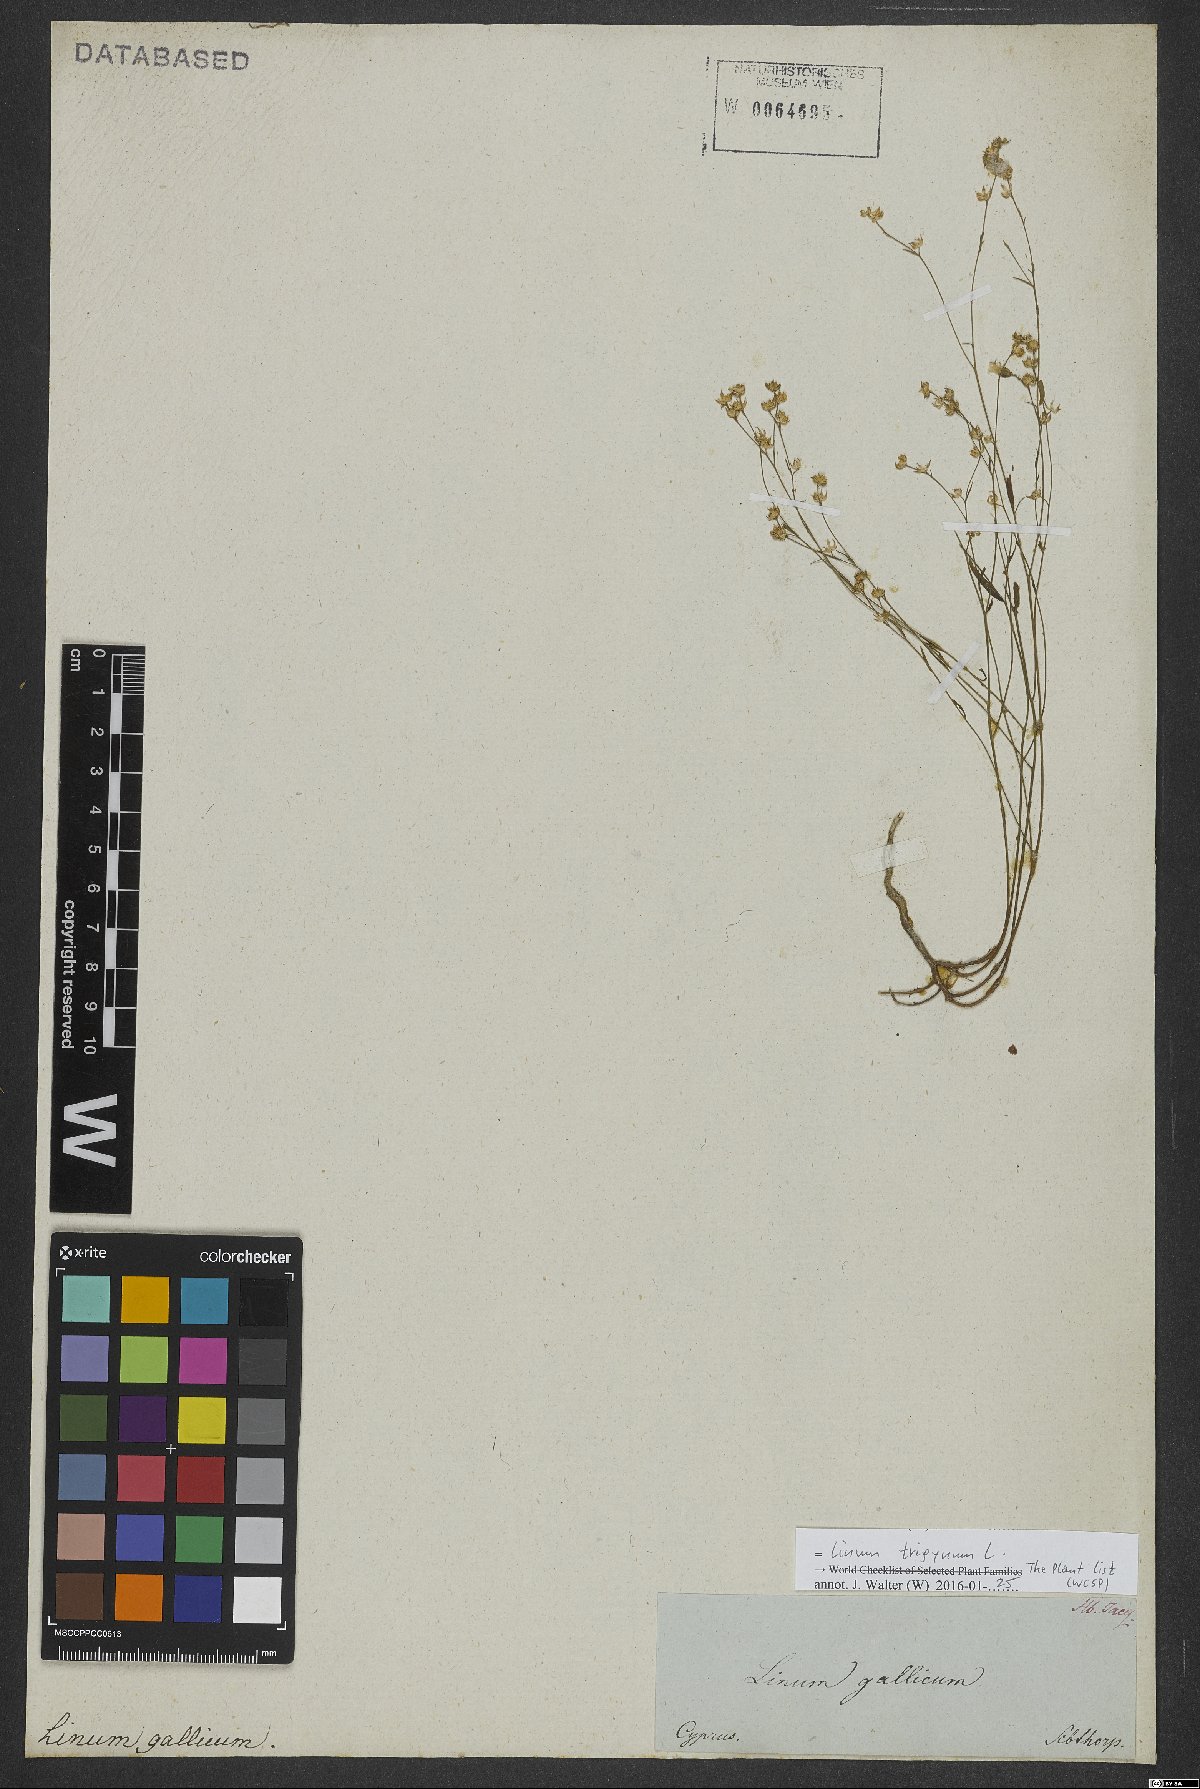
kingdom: Plantae
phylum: Tracheophyta
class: Magnoliopsida
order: Malpighiales
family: Linaceae
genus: Linum
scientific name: Linum trigynum
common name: French flax
